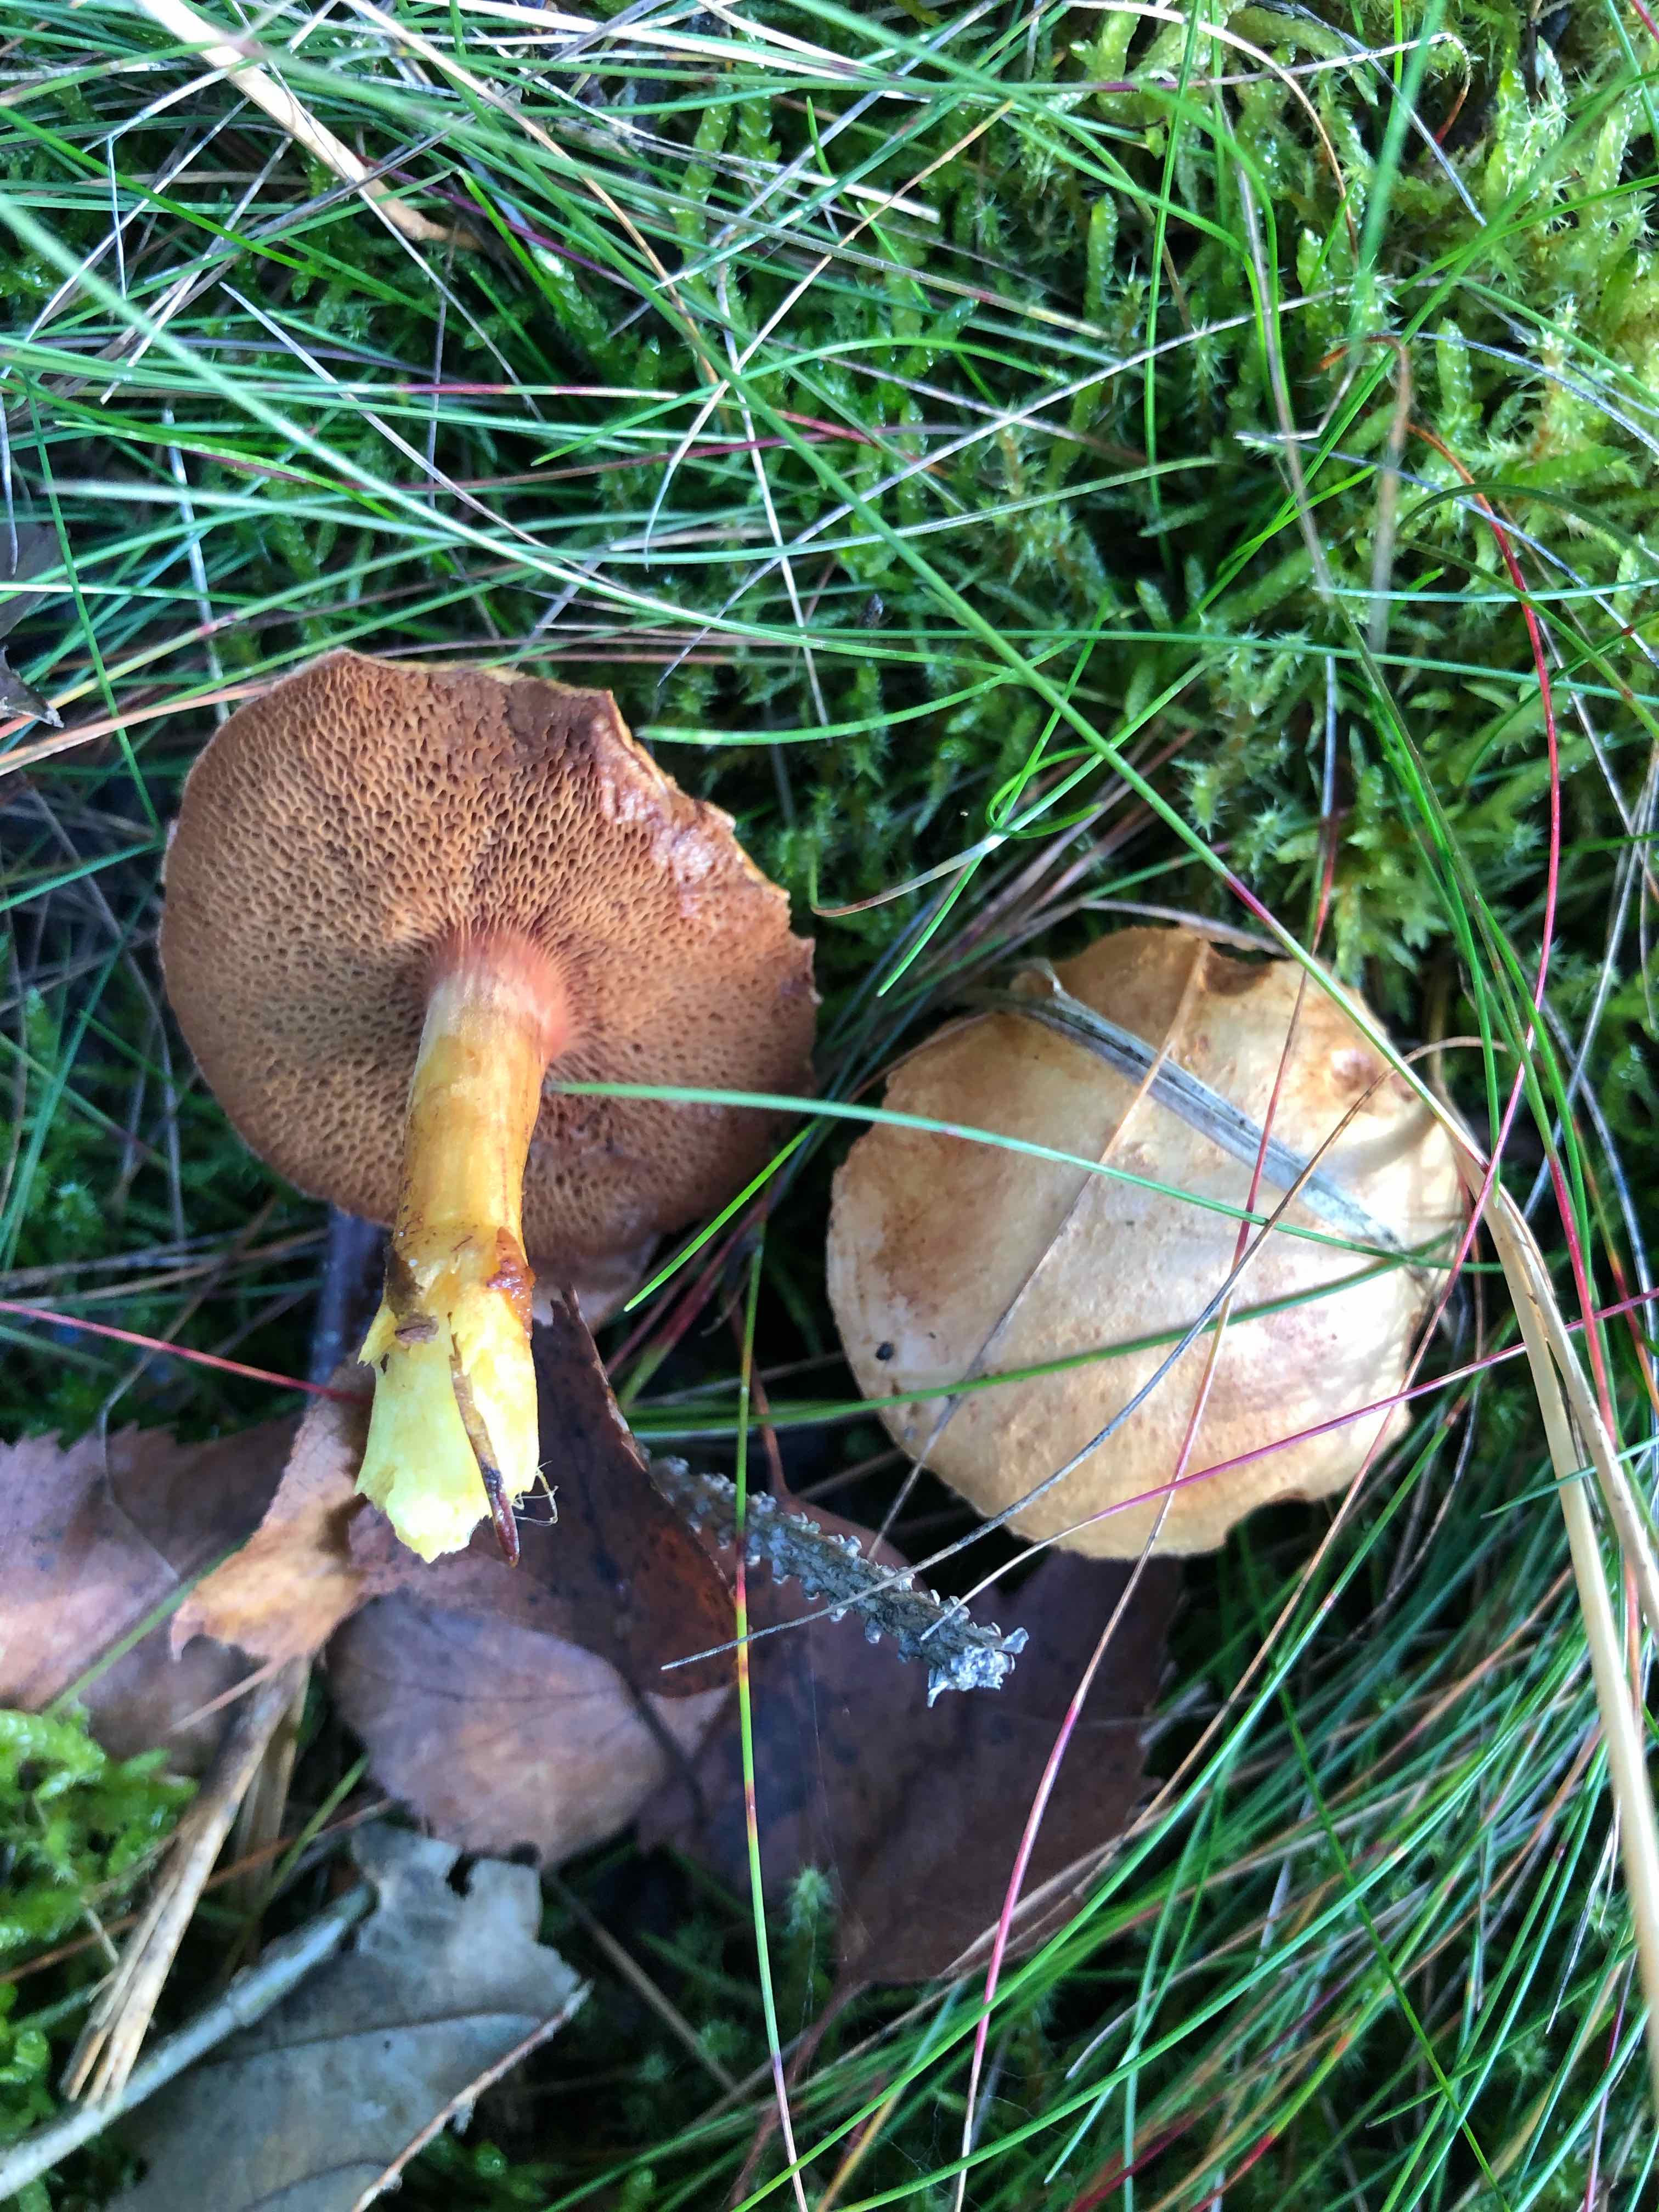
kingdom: Fungi
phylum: Basidiomycota
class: Agaricomycetes
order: Boletales
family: Boletaceae
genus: Chalciporus
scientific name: Chalciporus piperatus
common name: peberrørhat
